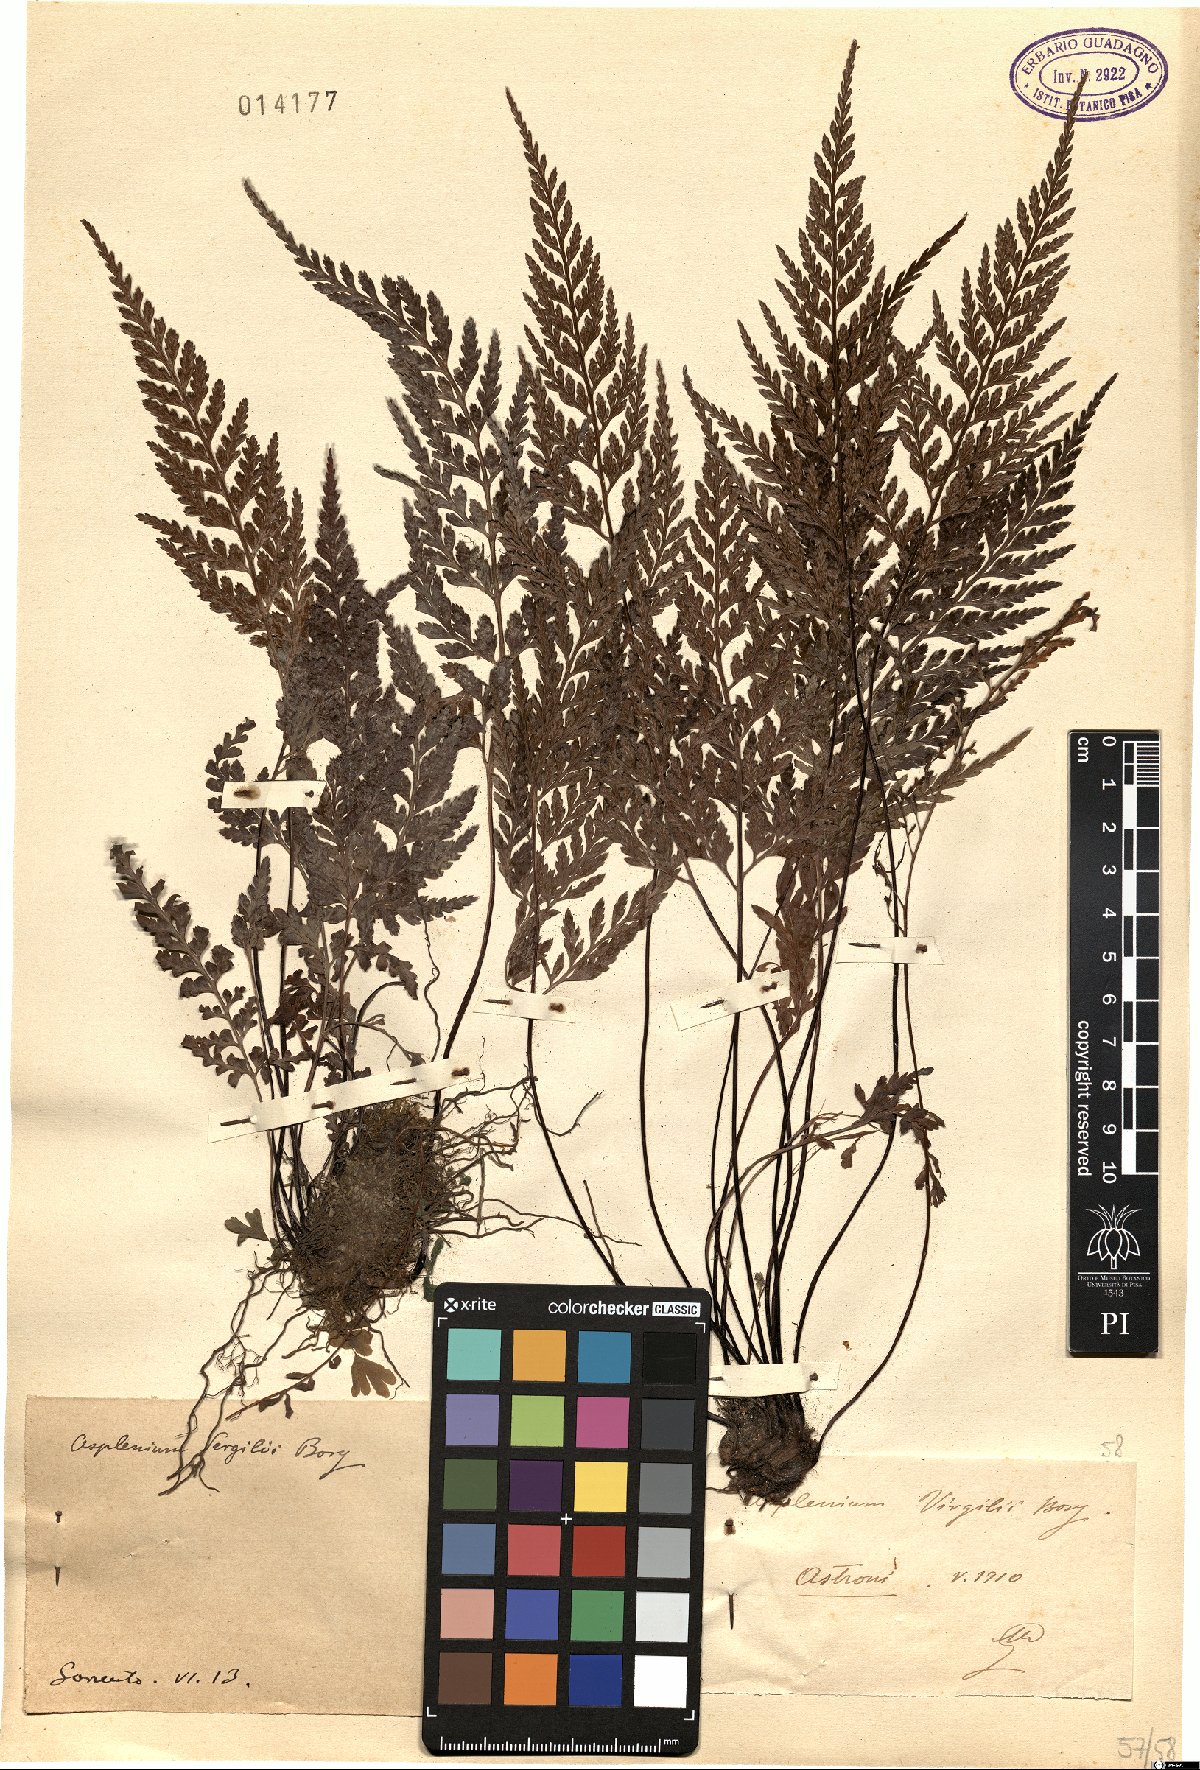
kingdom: Plantae
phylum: Tracheophyta
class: Polypodiopsida
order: Polypodiales
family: Aspleniaceae
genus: Asplenium
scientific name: Asplenium onopteris
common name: Irish spleenwort
